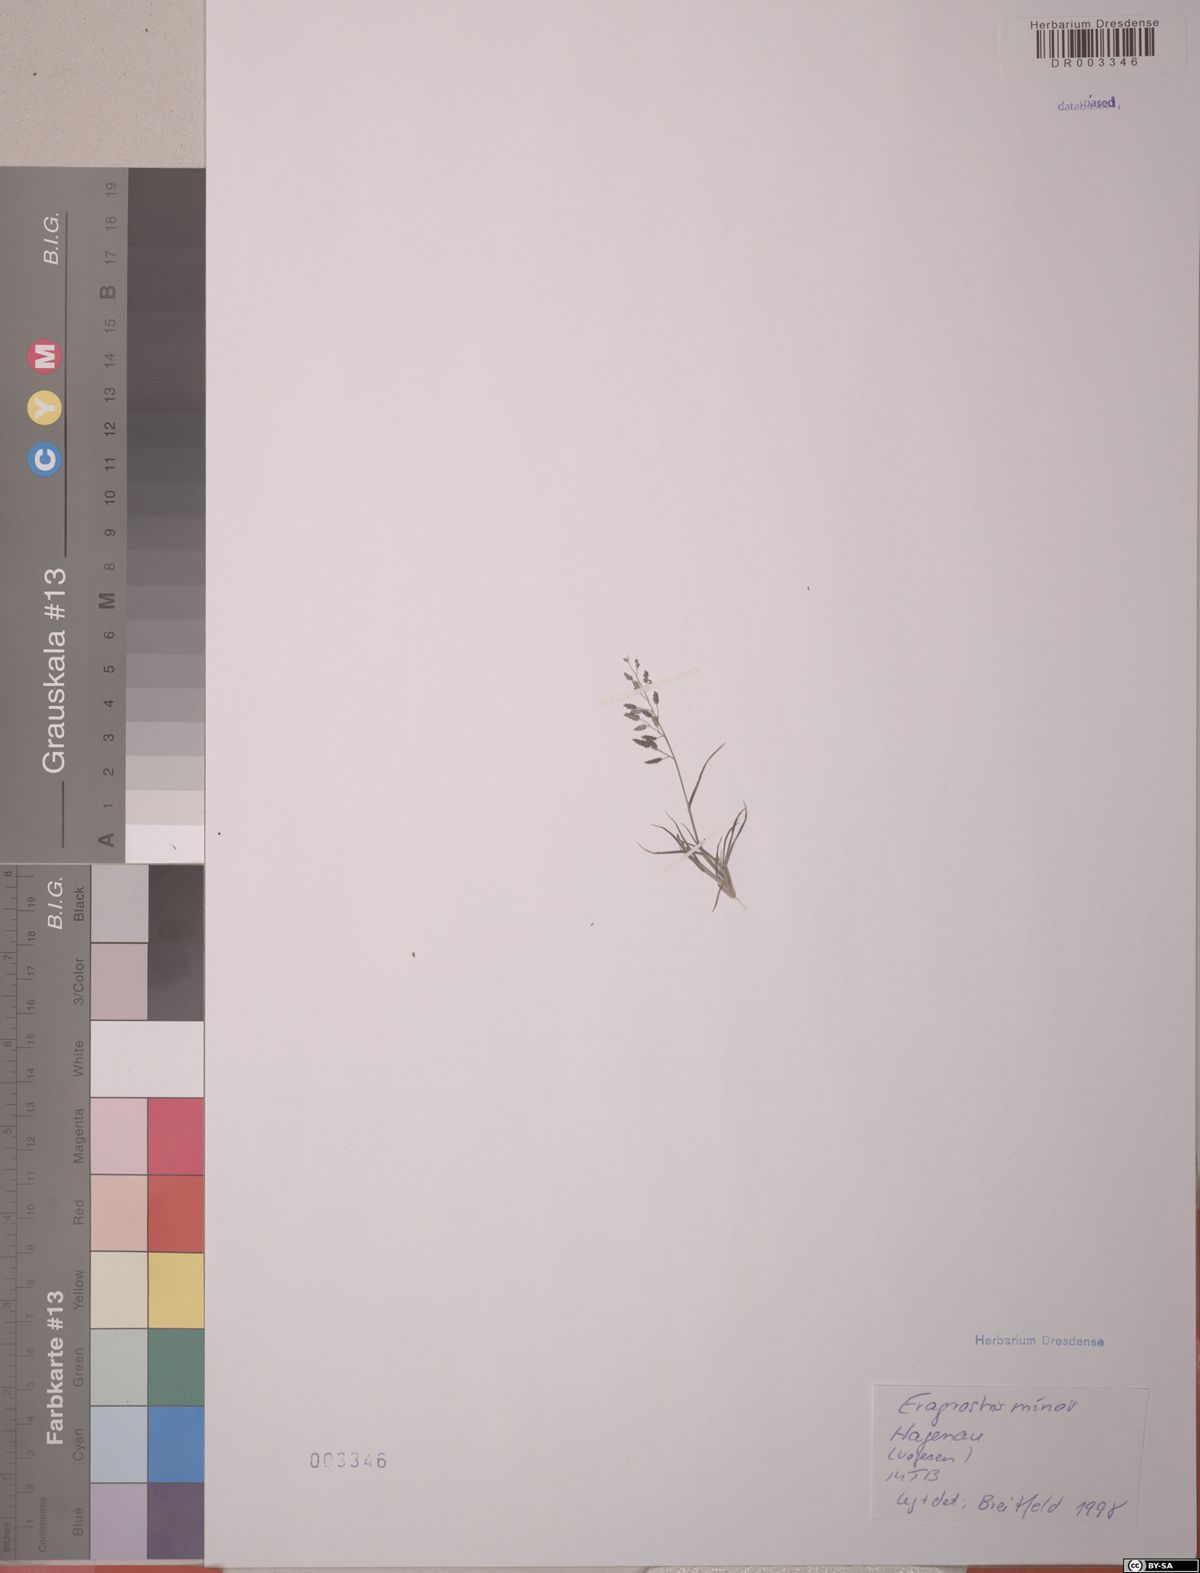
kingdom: Plantae
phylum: Tracheophyta
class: Liliopsida
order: Poales
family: Poaceae
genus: Eragrostis
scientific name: Eragrostis minor
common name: Small love-grass
